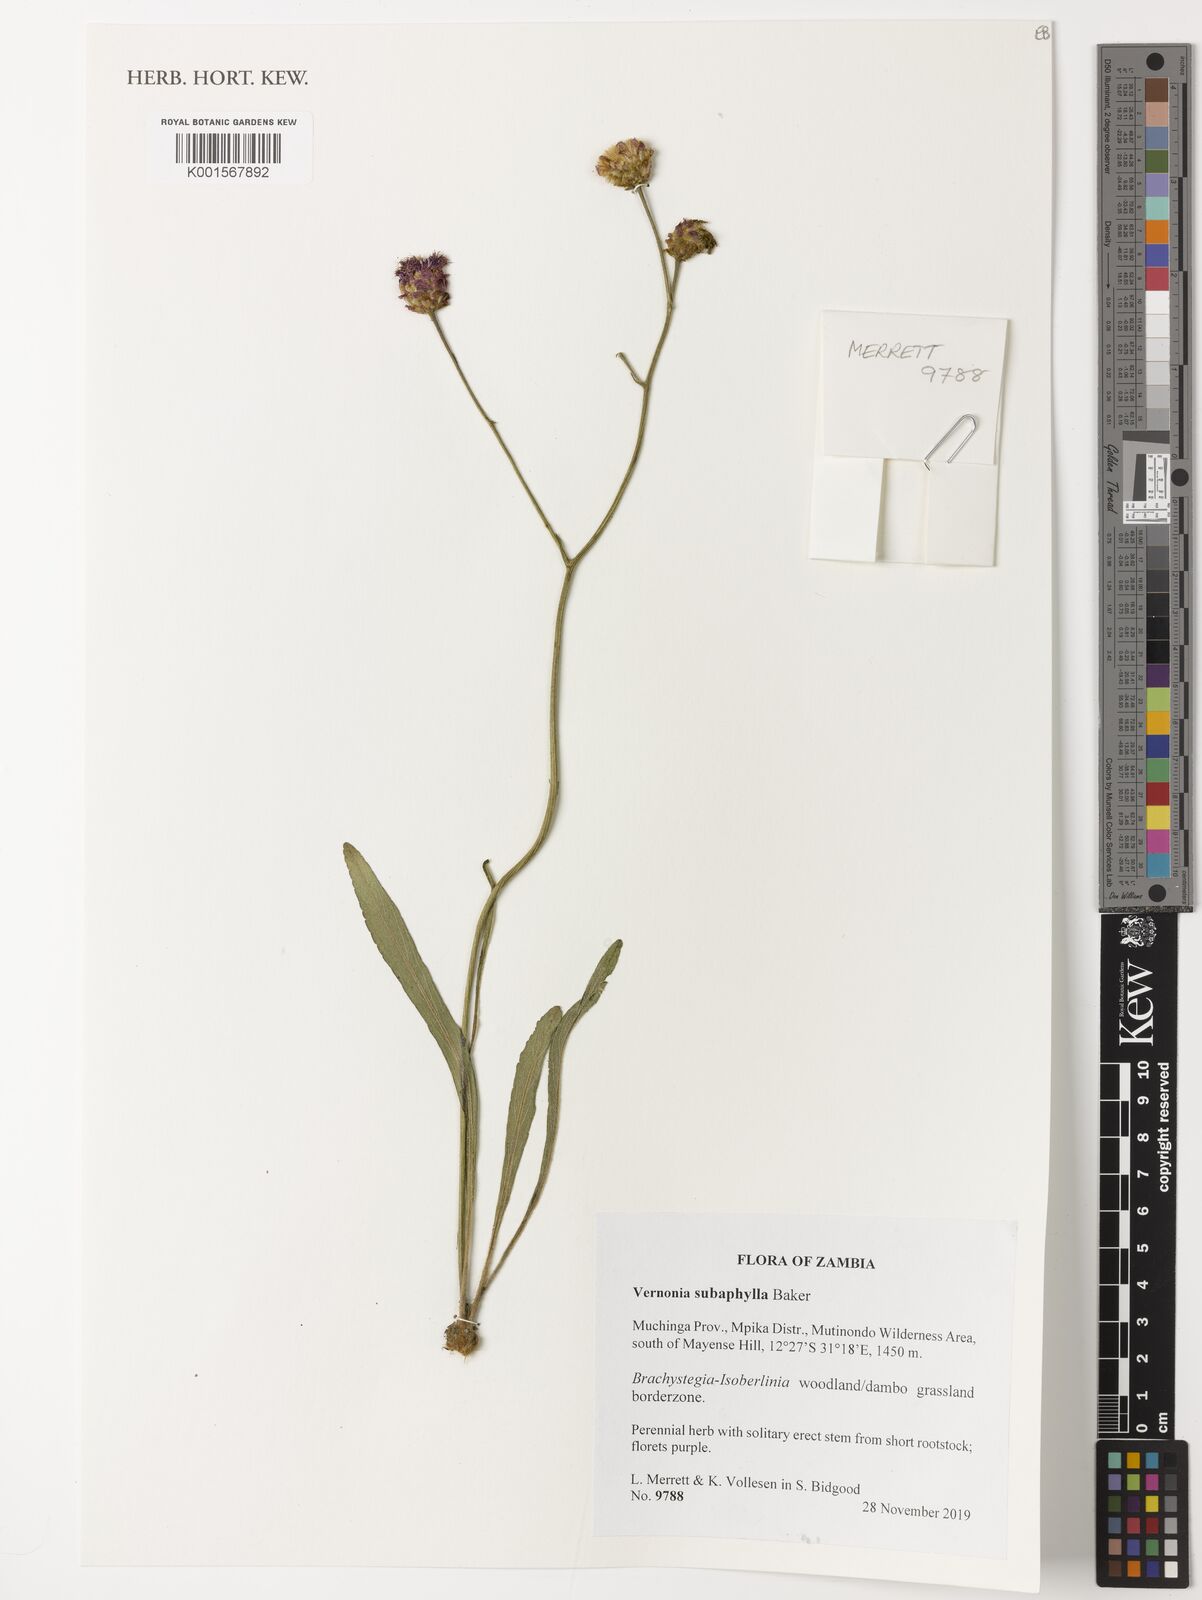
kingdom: Plantae
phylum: Tracheophyta
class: Magnoliopsida
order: Asterales
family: Asteraceae
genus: Vernonella
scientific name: Vernonella subaphylla
